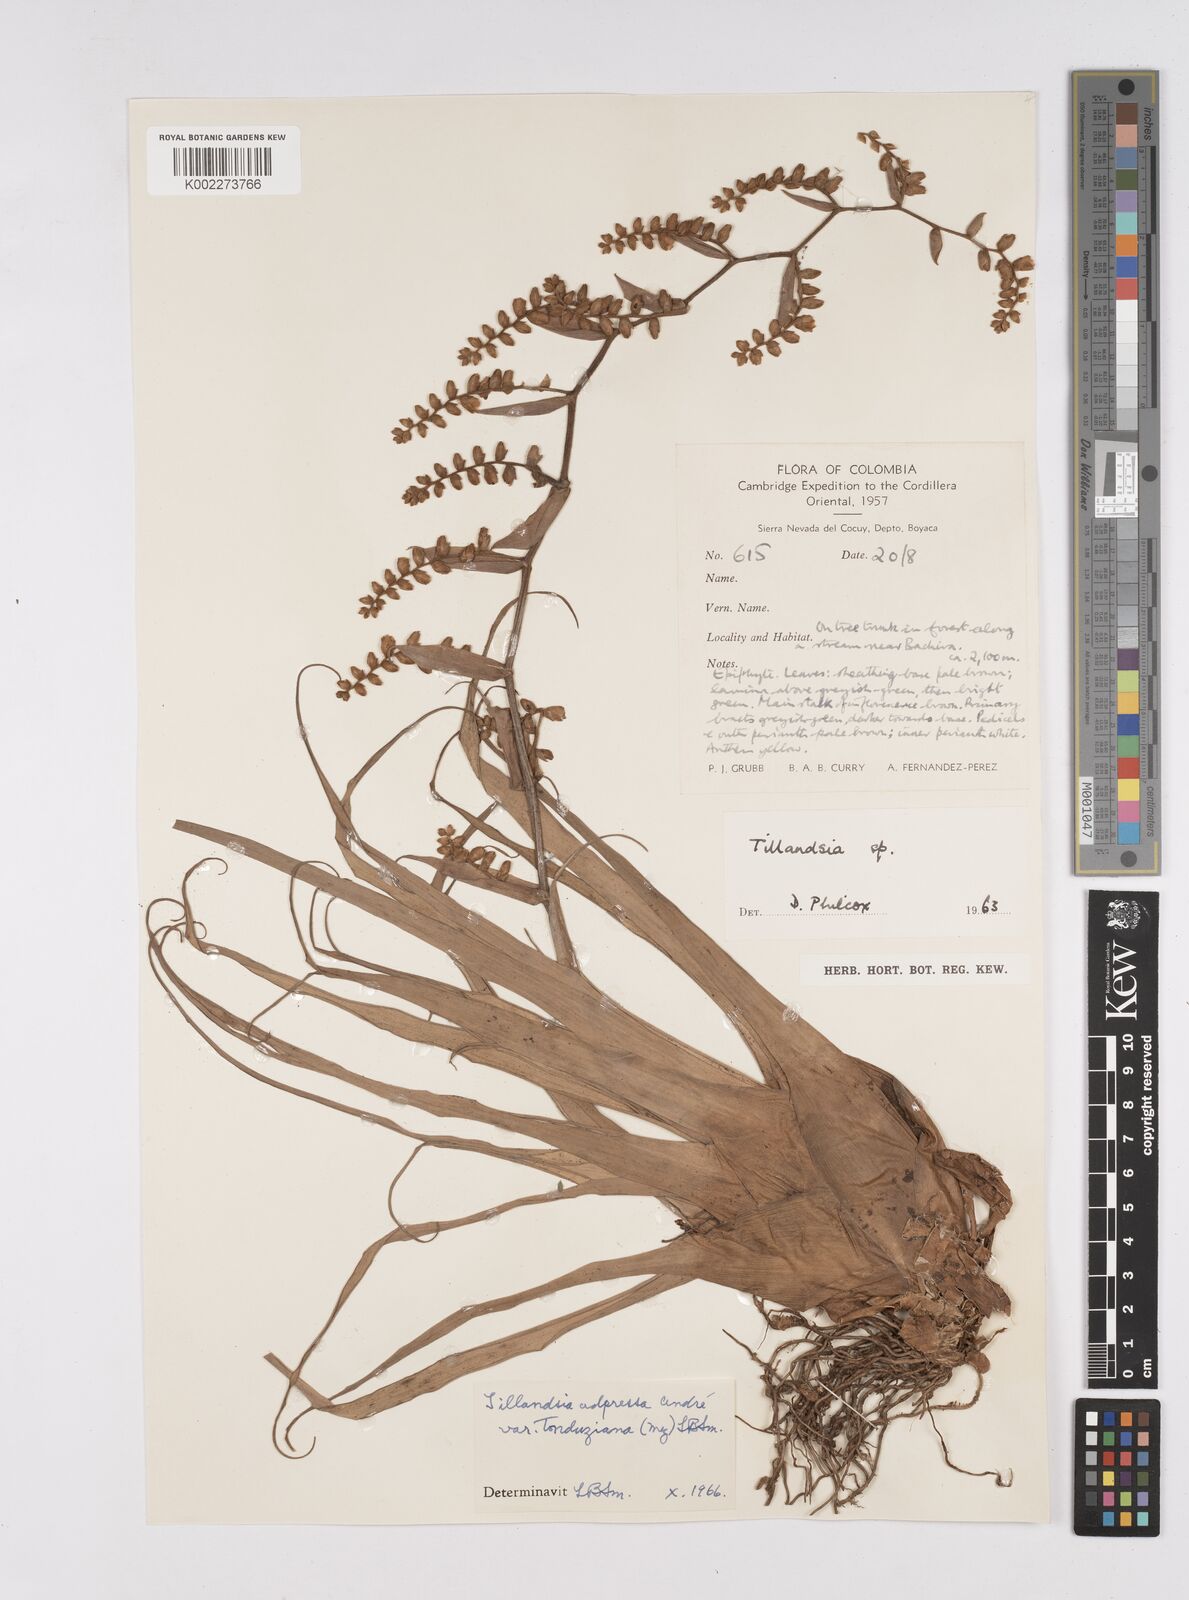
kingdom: Plantae
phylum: Tracheophyta
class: Liliopsida
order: Poales
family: Bromeliaceae
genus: Racinaea
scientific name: Racinaea schumanniana
